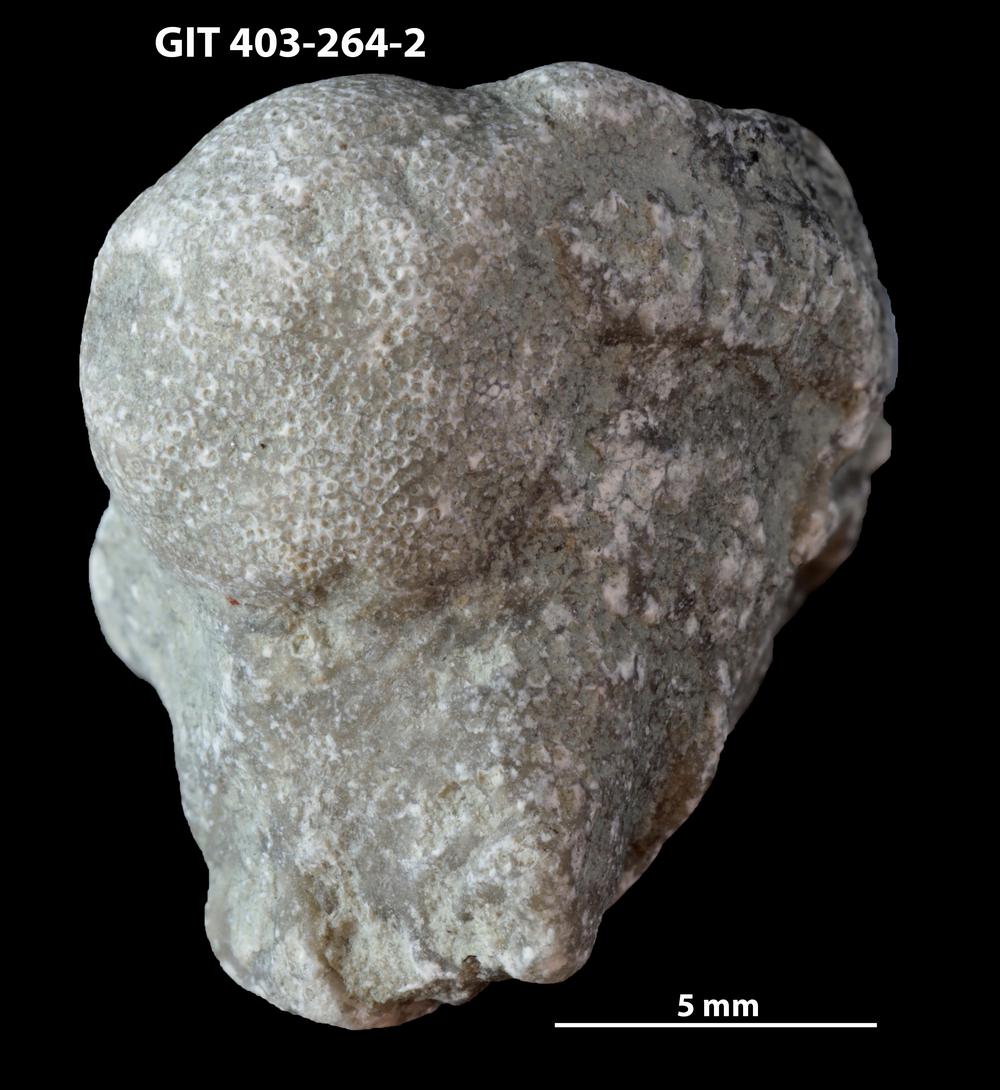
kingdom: Animalia
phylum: Bryozoa
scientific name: Bryozoa
